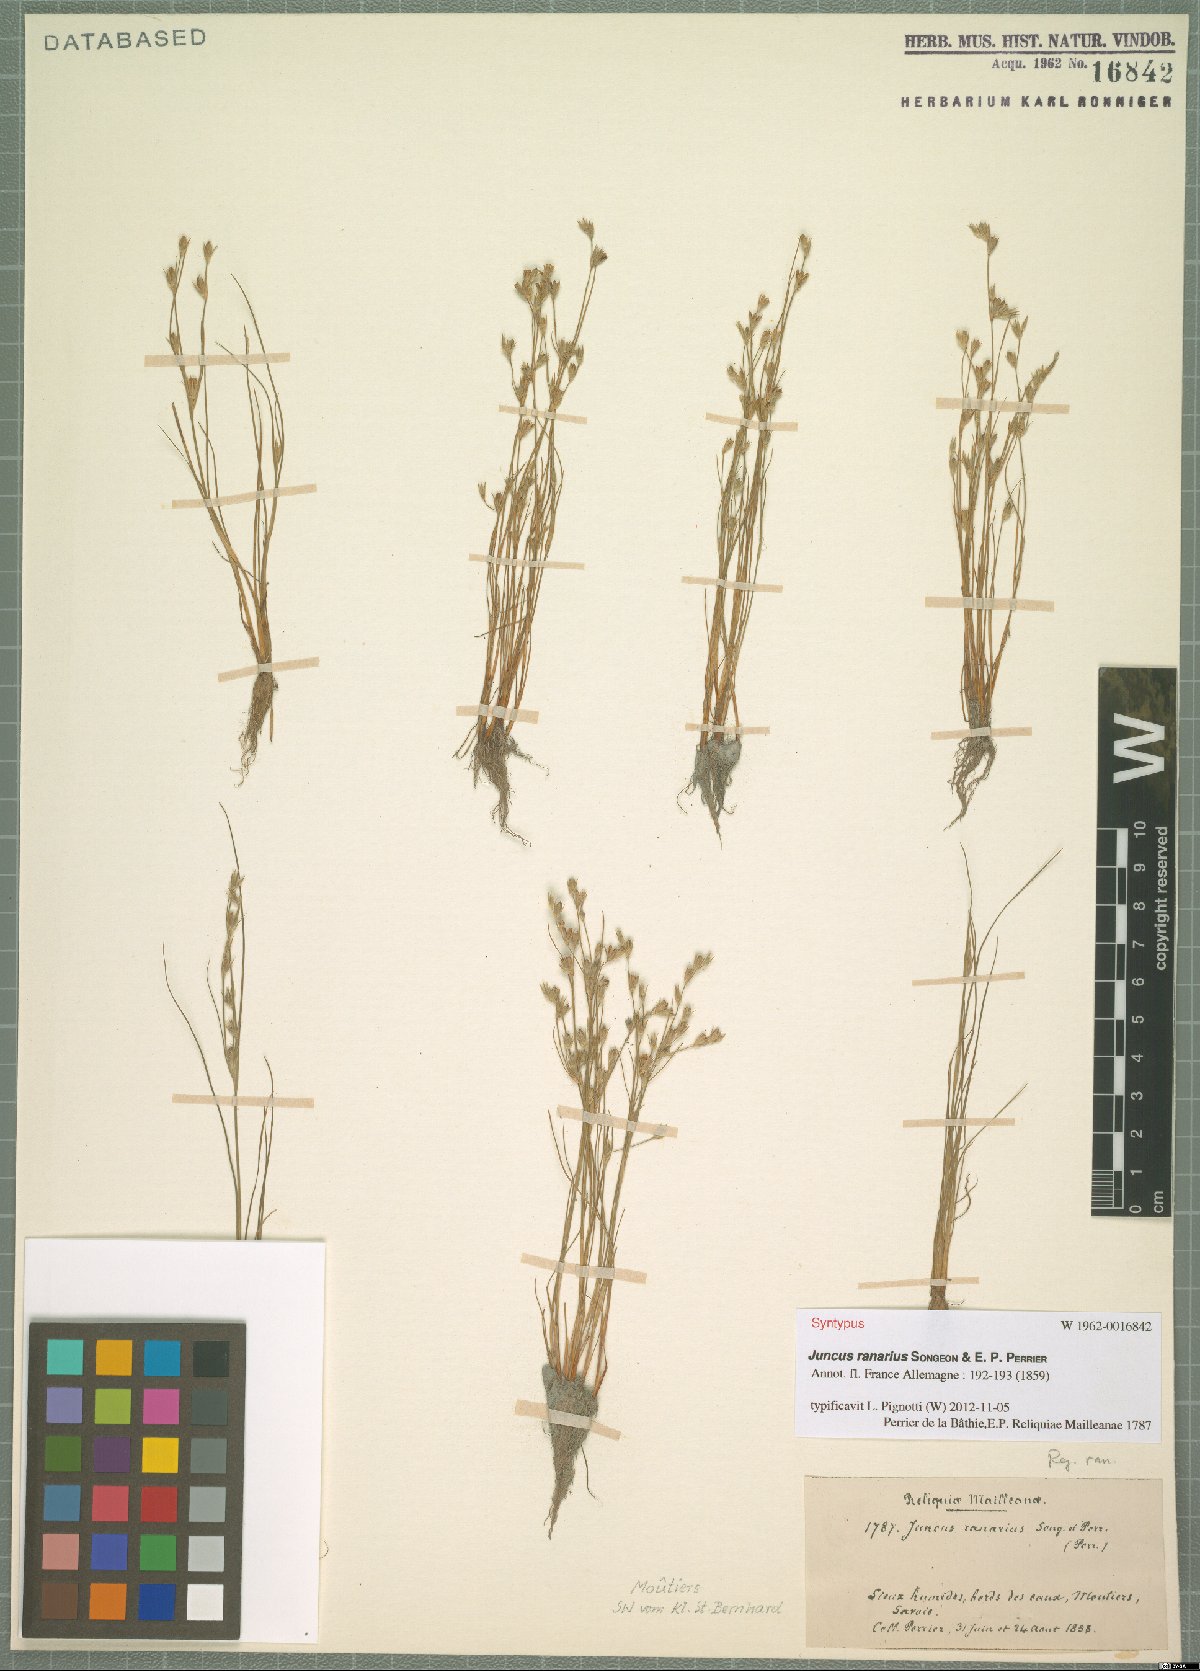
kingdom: Plantae
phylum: Tracheophyta
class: Liliopsida
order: Poales
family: Juncaceae
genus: Juncus
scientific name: Juncus ranarius
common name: Frog rush
